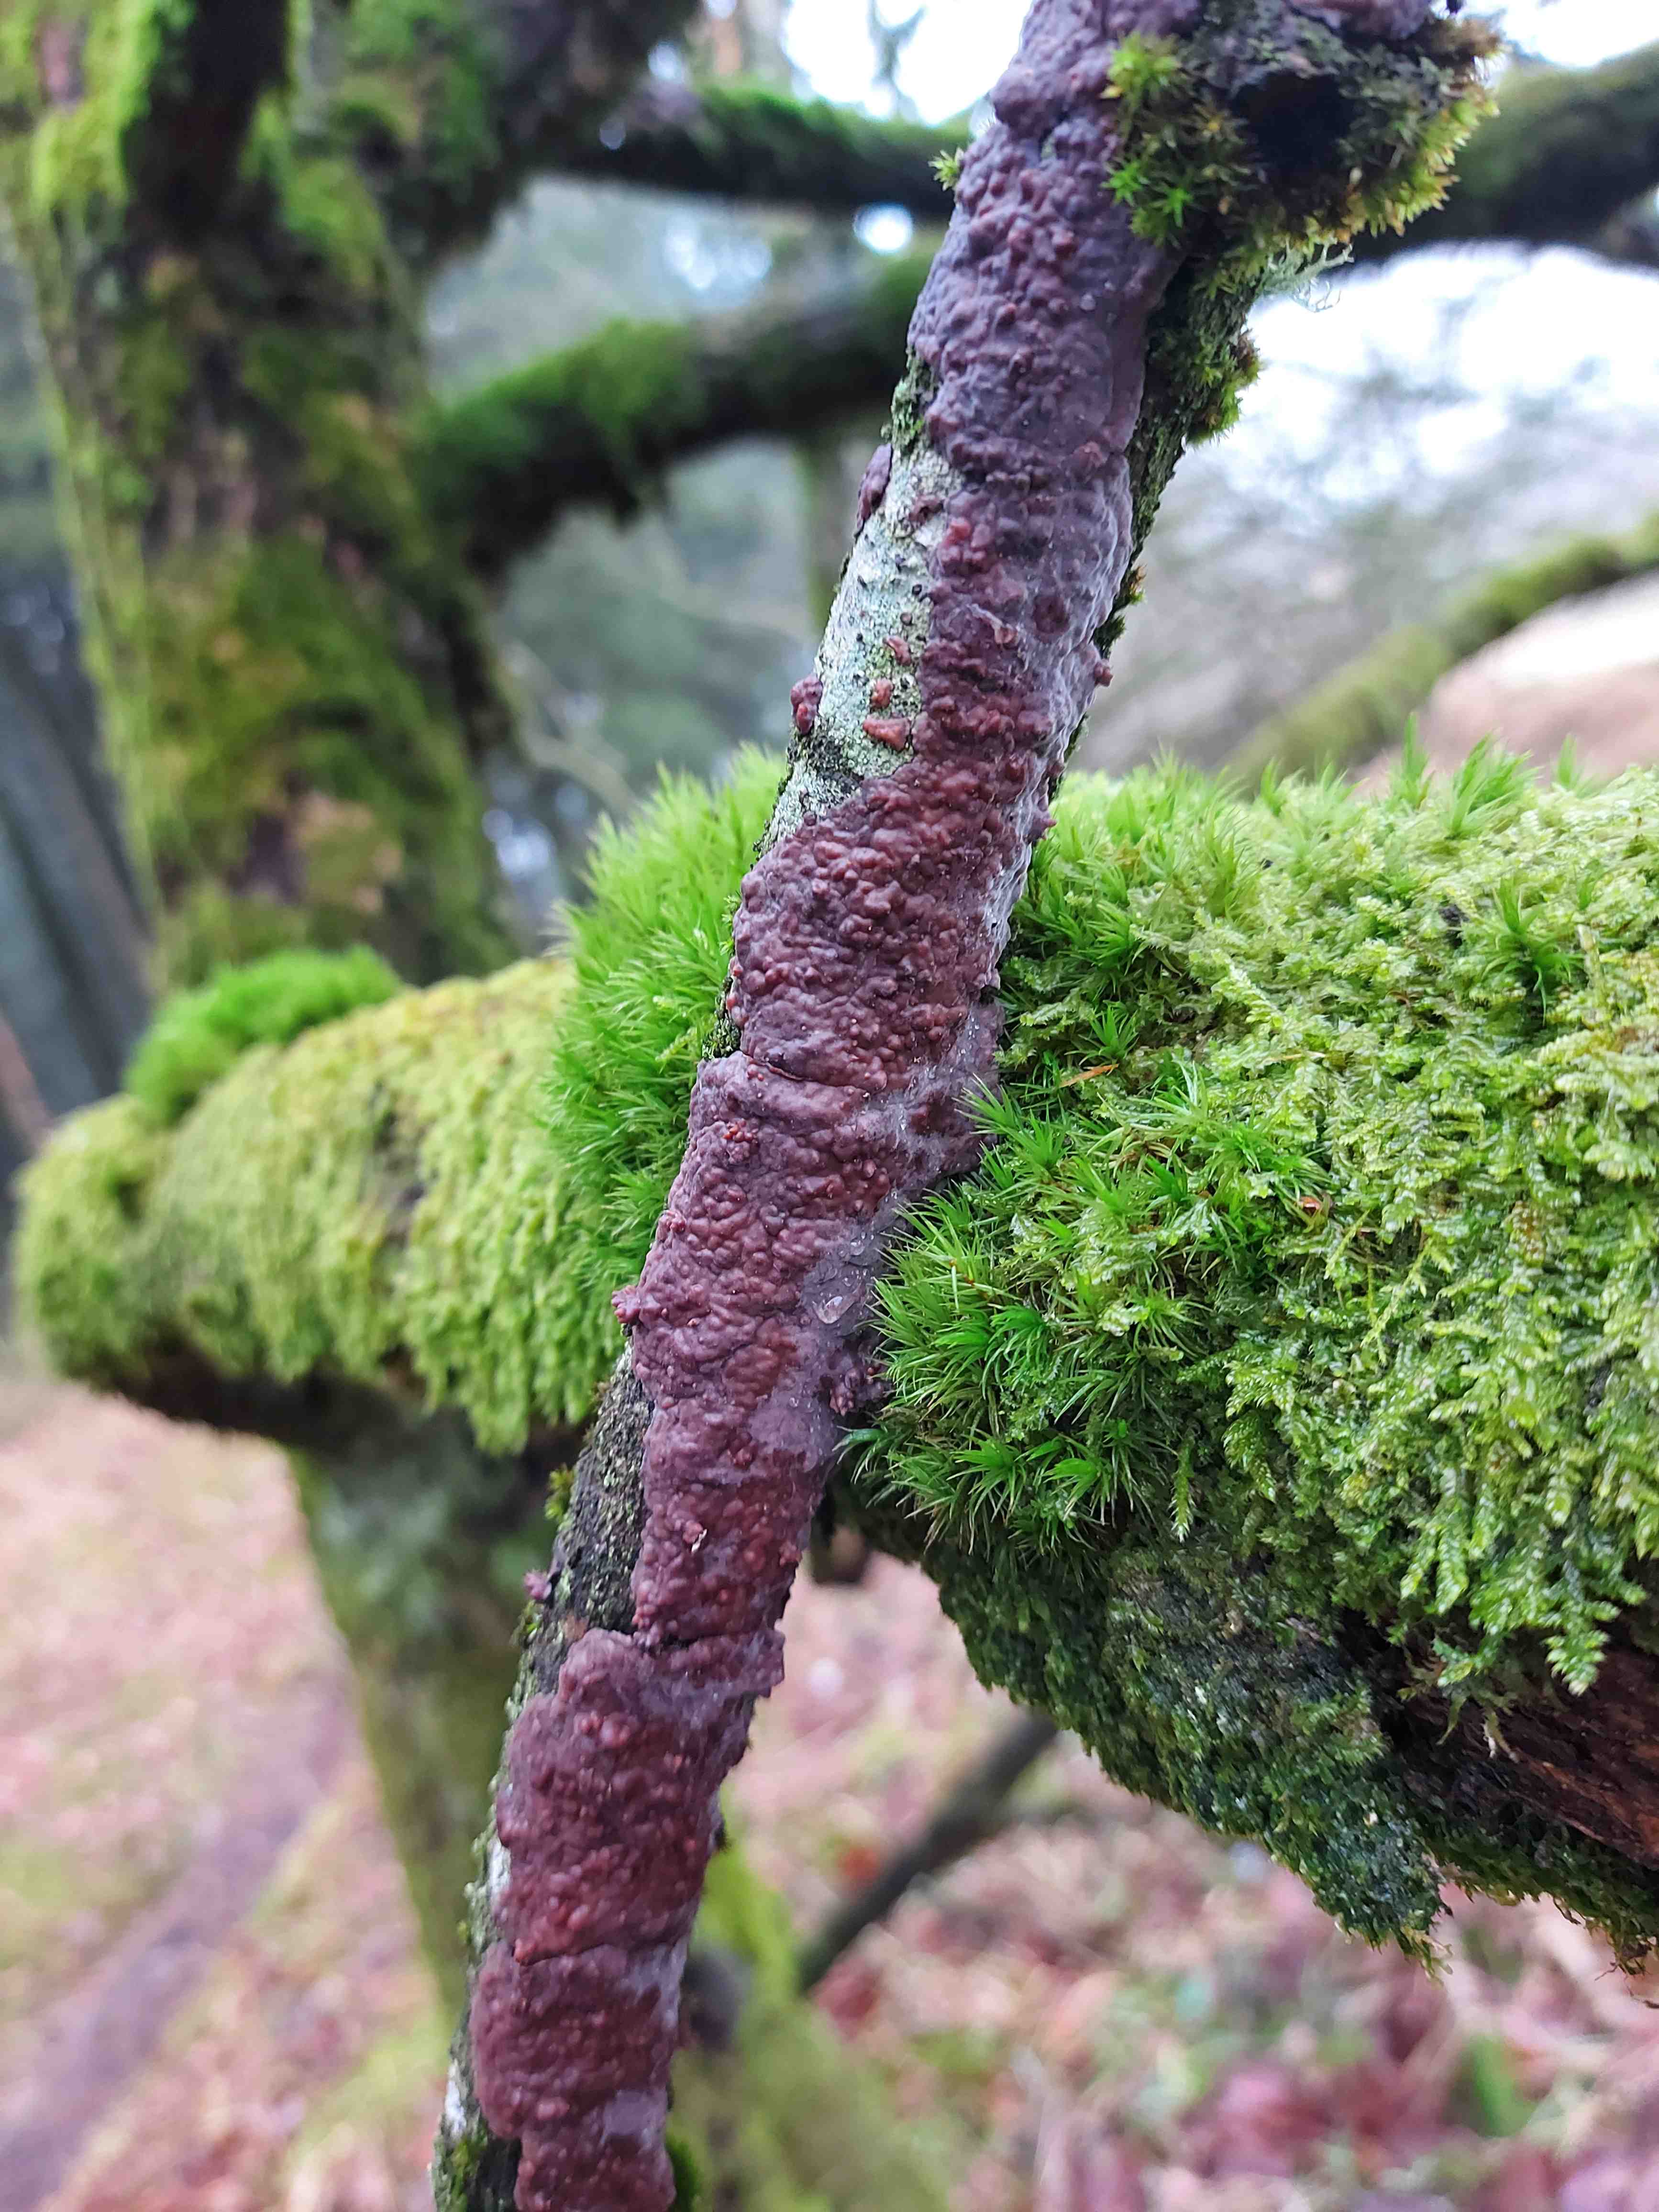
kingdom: Fungi
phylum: Basidiomycota
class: Agaricomycetes
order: Russulales
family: Peniophoraceae
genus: Peniophora
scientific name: Peniophora quercina
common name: ege-voksskind
